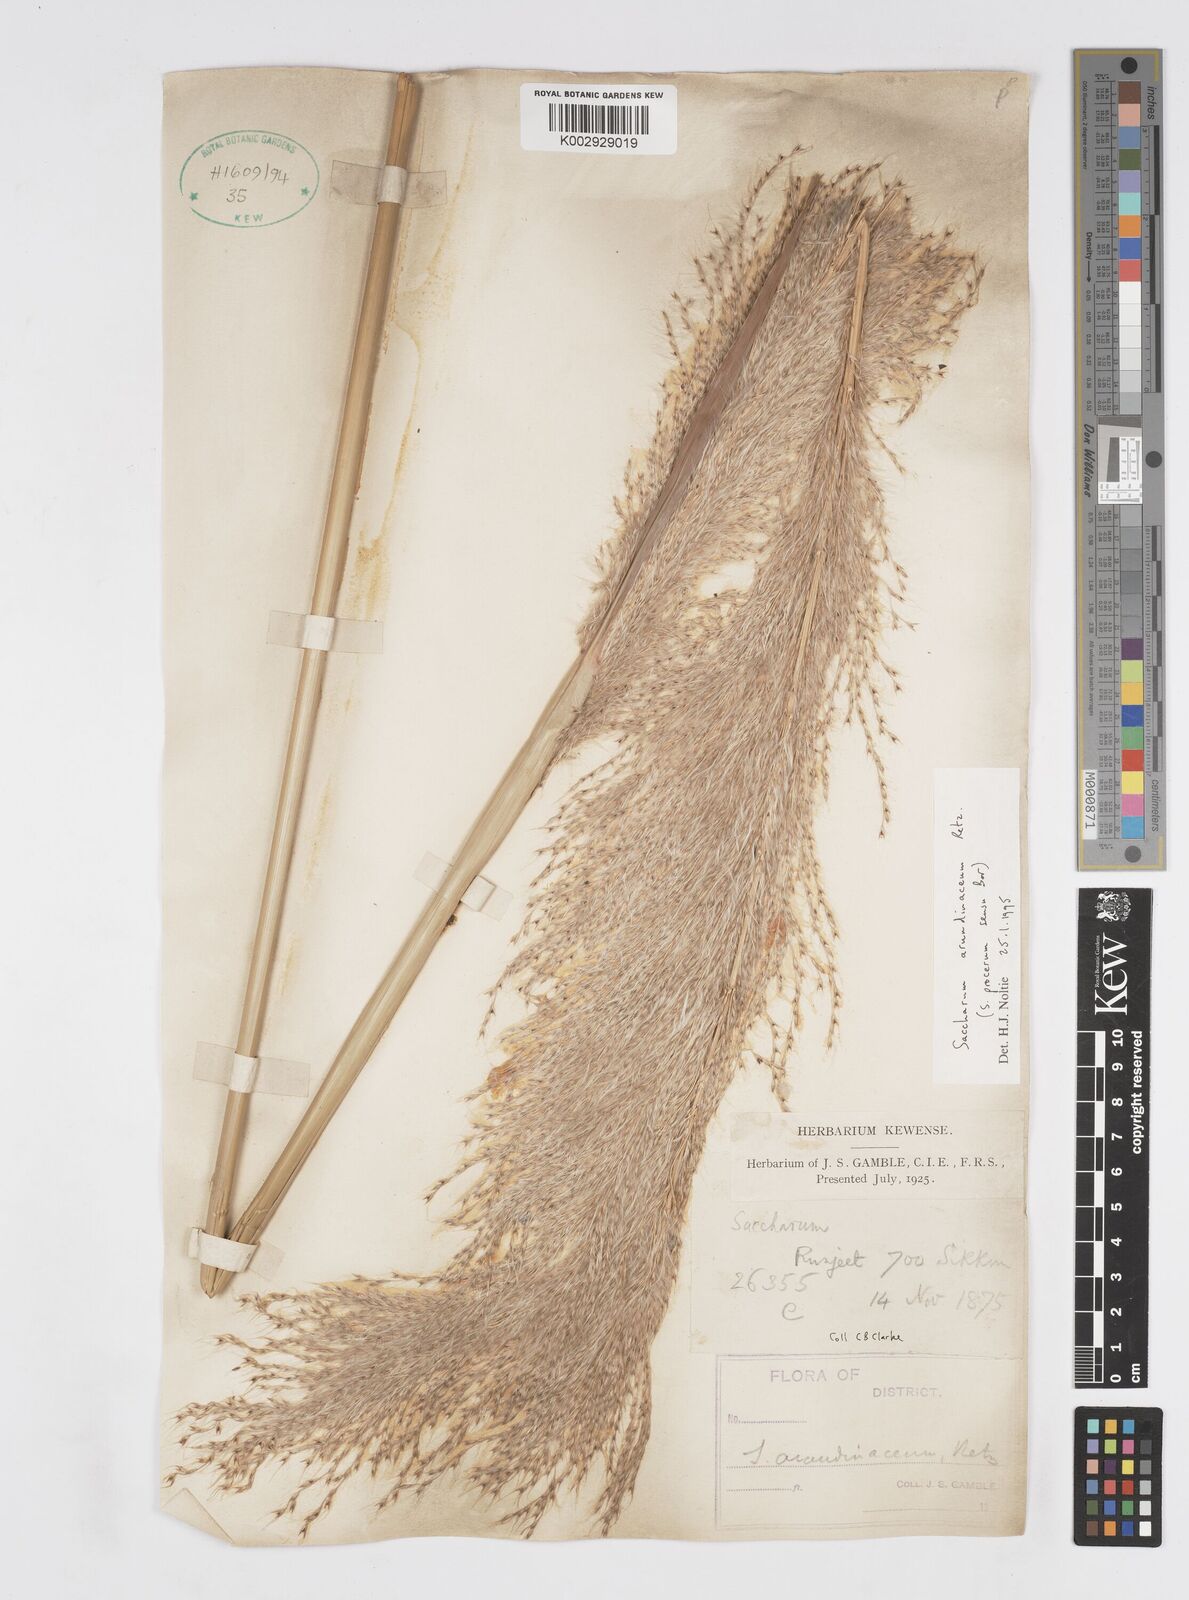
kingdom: Plantae
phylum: Tracheophyta
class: Liliopsida
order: Poales
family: Poaceae
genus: Tripidium
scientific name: Tripidium arundinaceum
